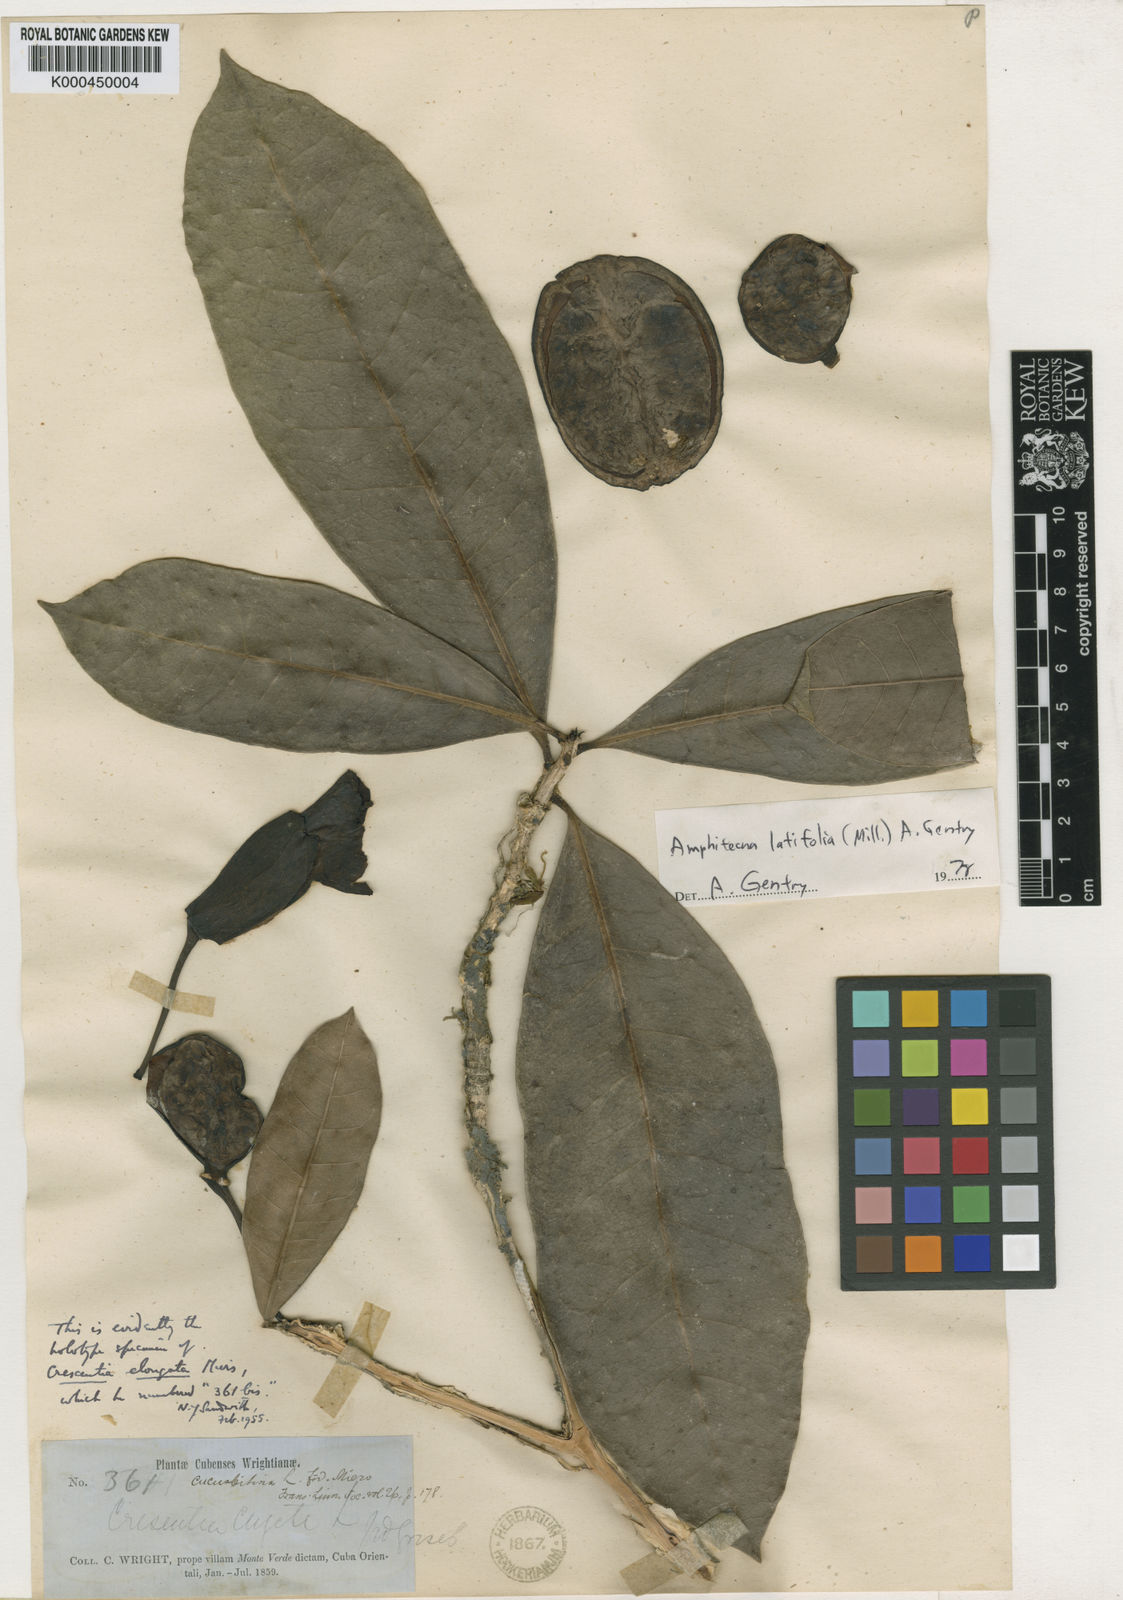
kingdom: Plantae
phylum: Tracheophyta
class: Magnoliopsida
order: Lamiales
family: Bignoniaceae
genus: Amphitecna
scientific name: Amphitecna latifolia
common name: Black-calabash
